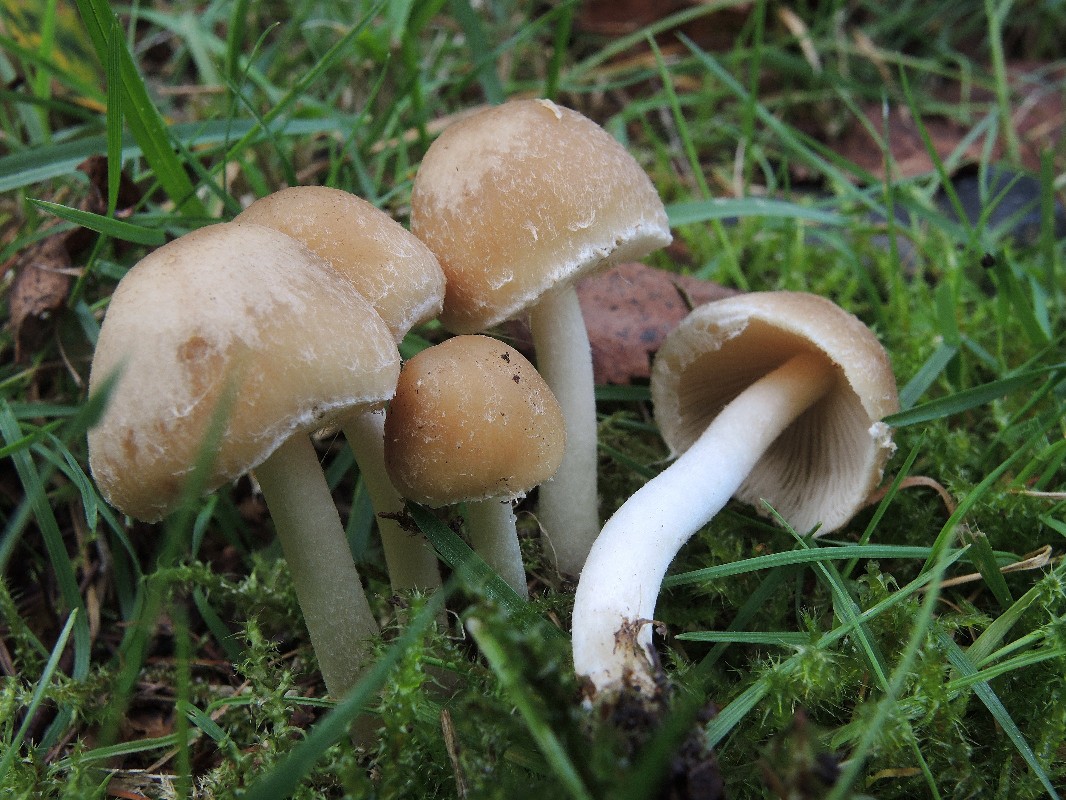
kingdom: Fungi
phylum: Basidiomycota
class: Agaricomycetes
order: Agaricales
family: Psathyrellaceae
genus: Candolleomyces
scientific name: Candolleomyces candolleanus
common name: Candolles mørkhat
